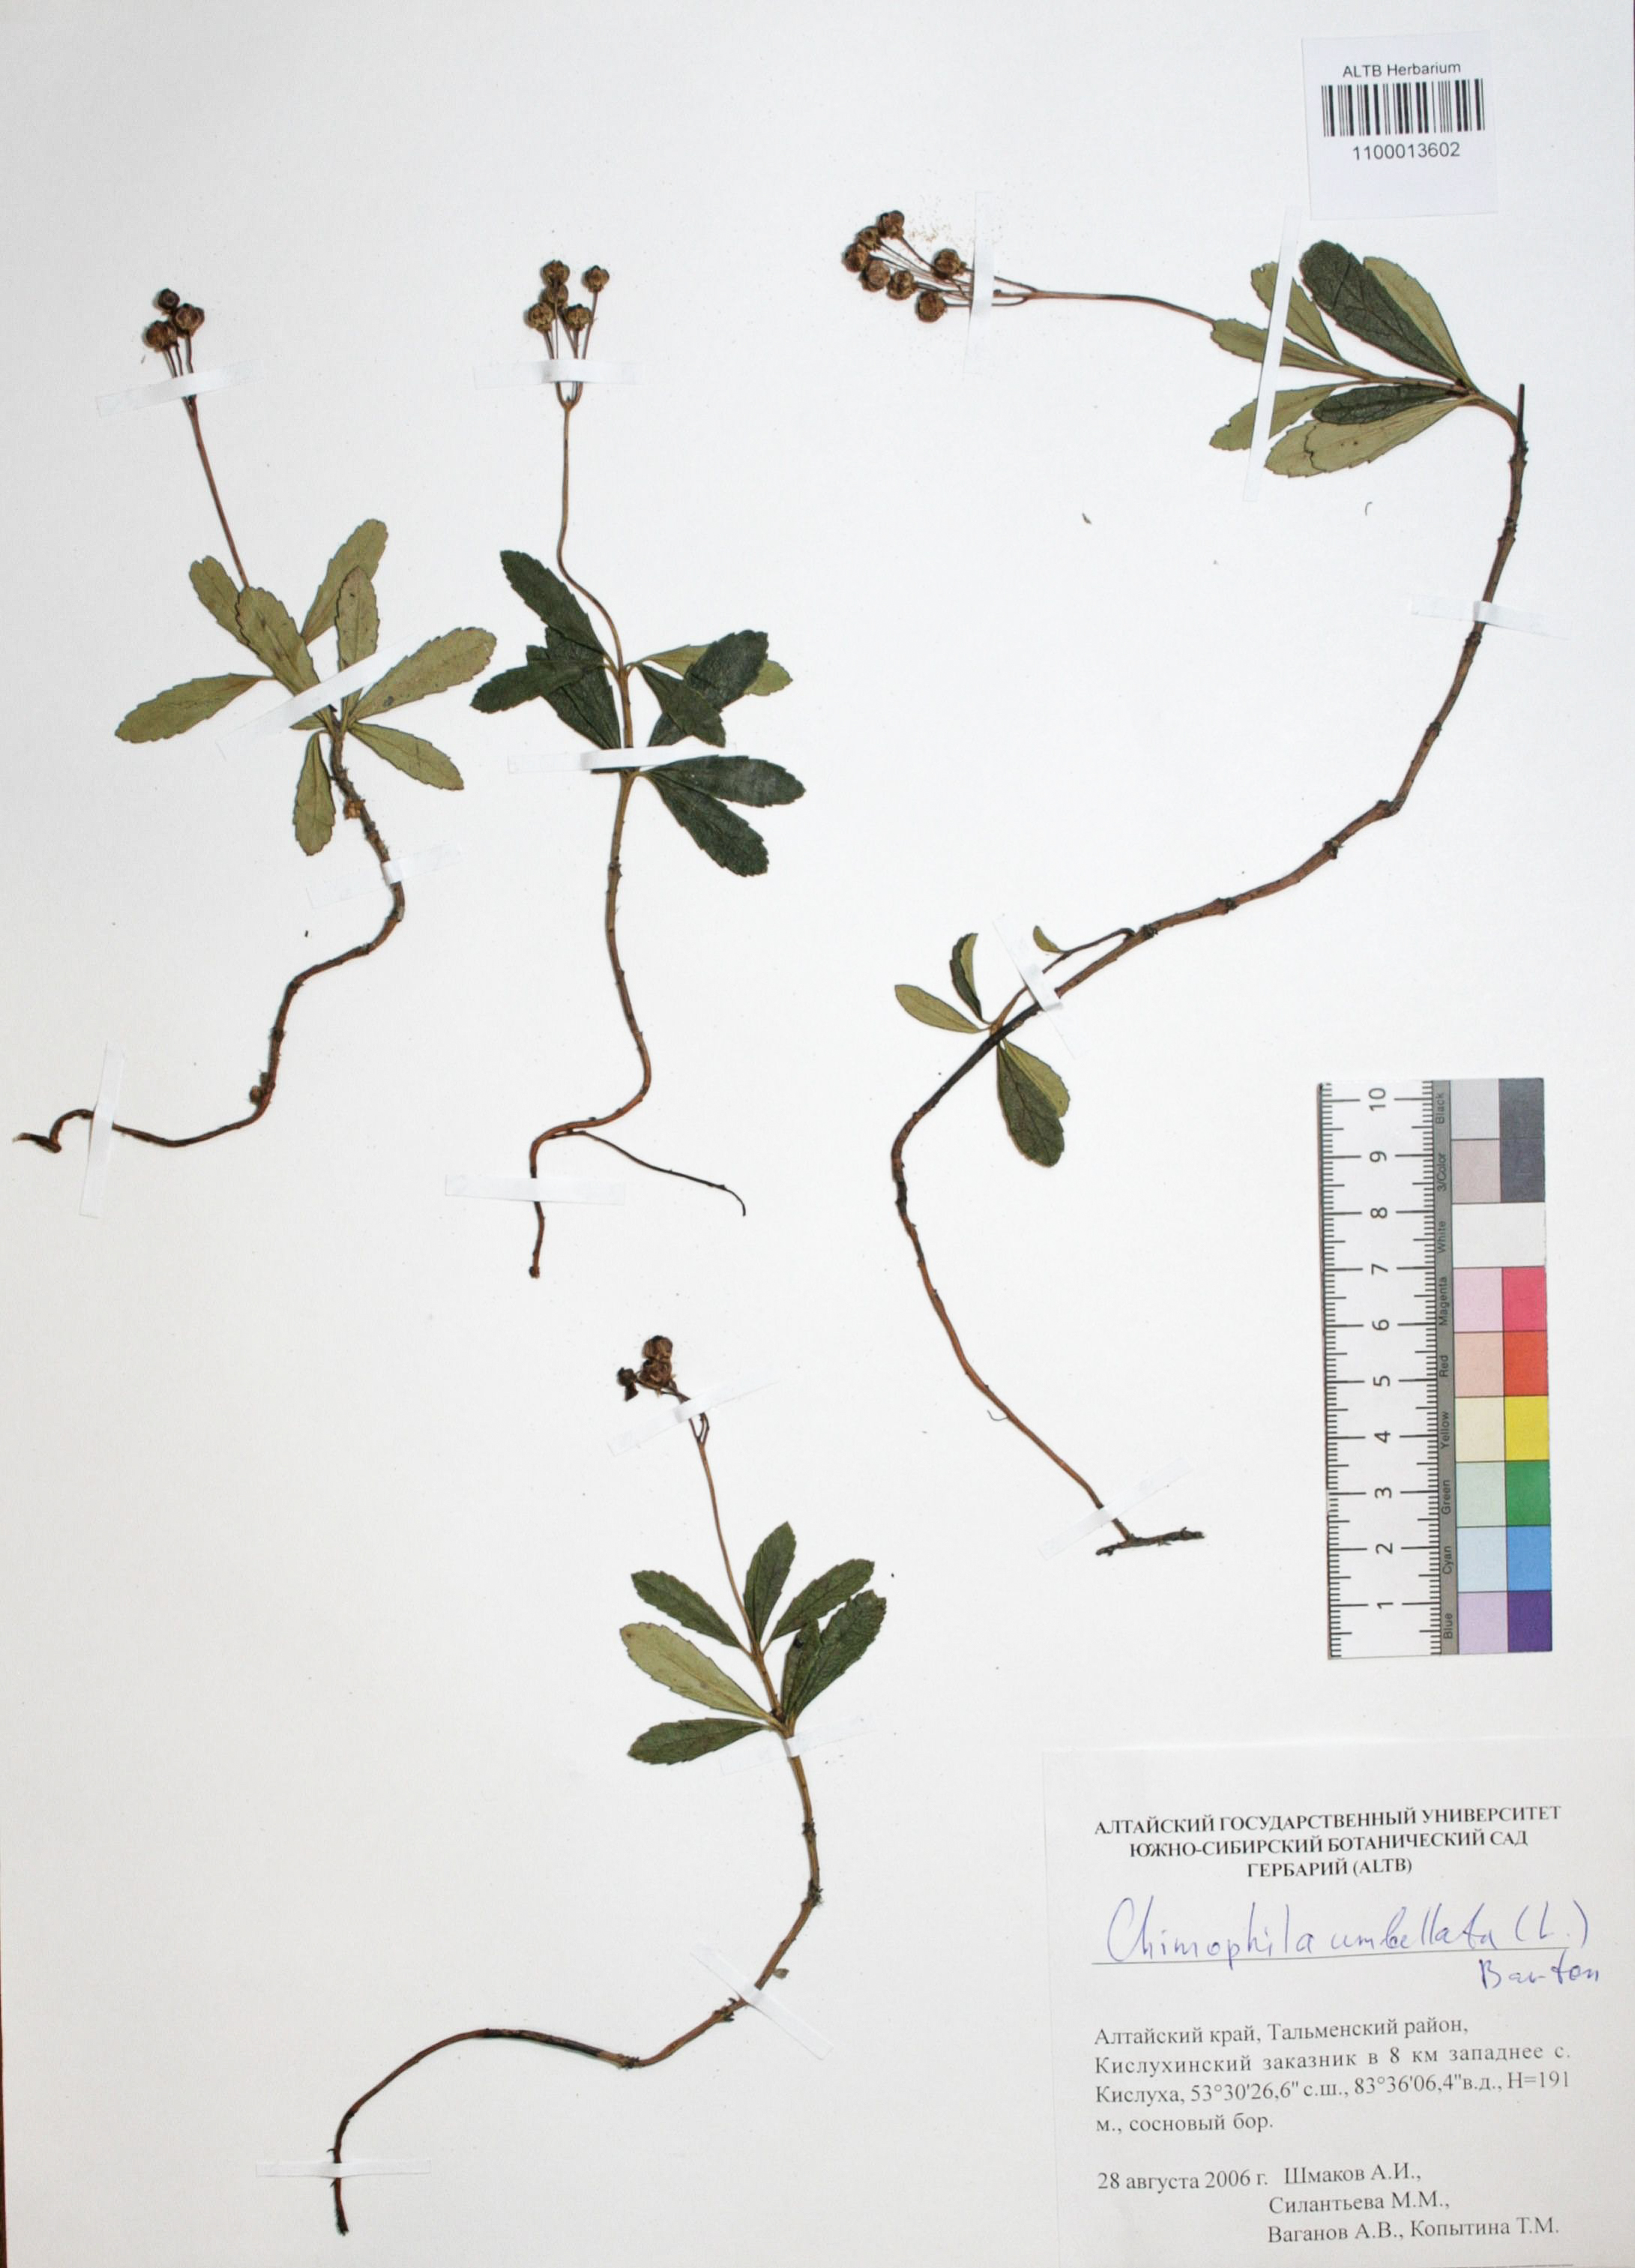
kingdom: Plantae
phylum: Tracheophyta
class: Magnoliopsida
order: Ericales
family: Ericaceae
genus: Chimaphila
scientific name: Chimaphila umbellata
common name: Pipsissewa
